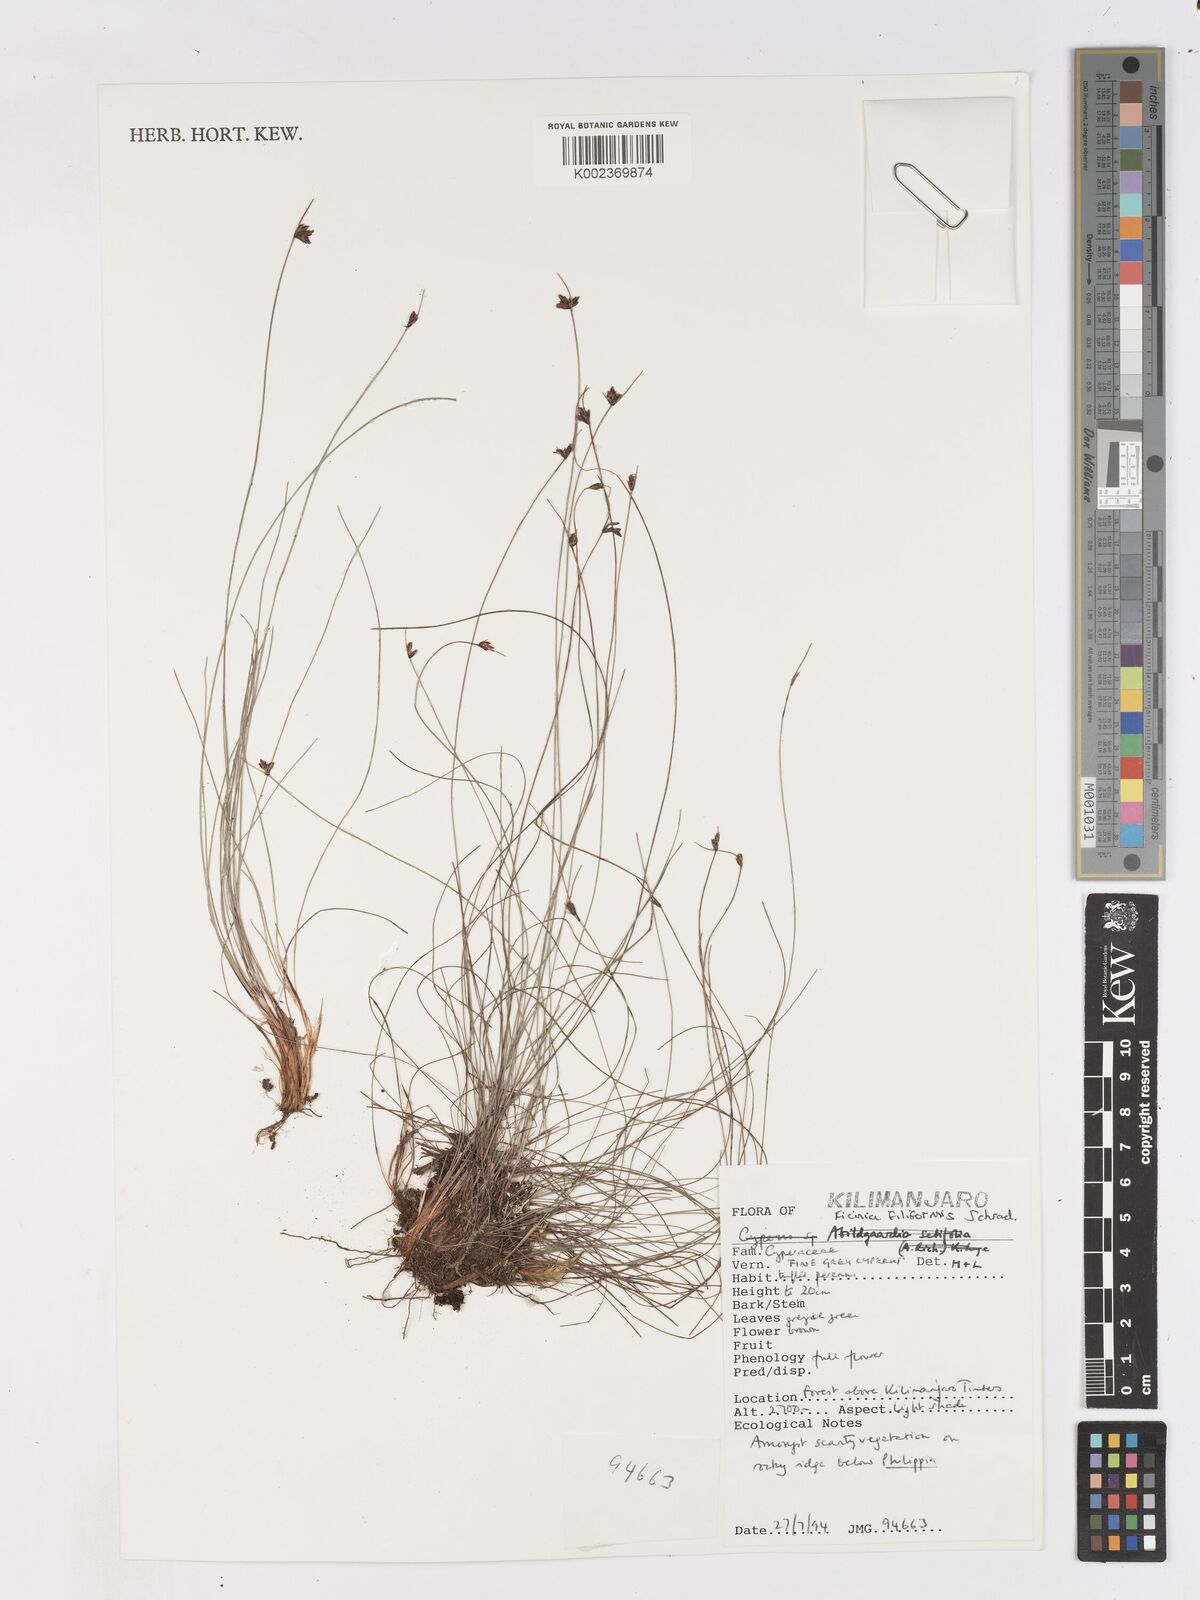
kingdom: Plantae
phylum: Tracheophyta
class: Liliopsida
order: Poales
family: Cyperaceae
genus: Ficinia
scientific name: Ficinia filiformis
